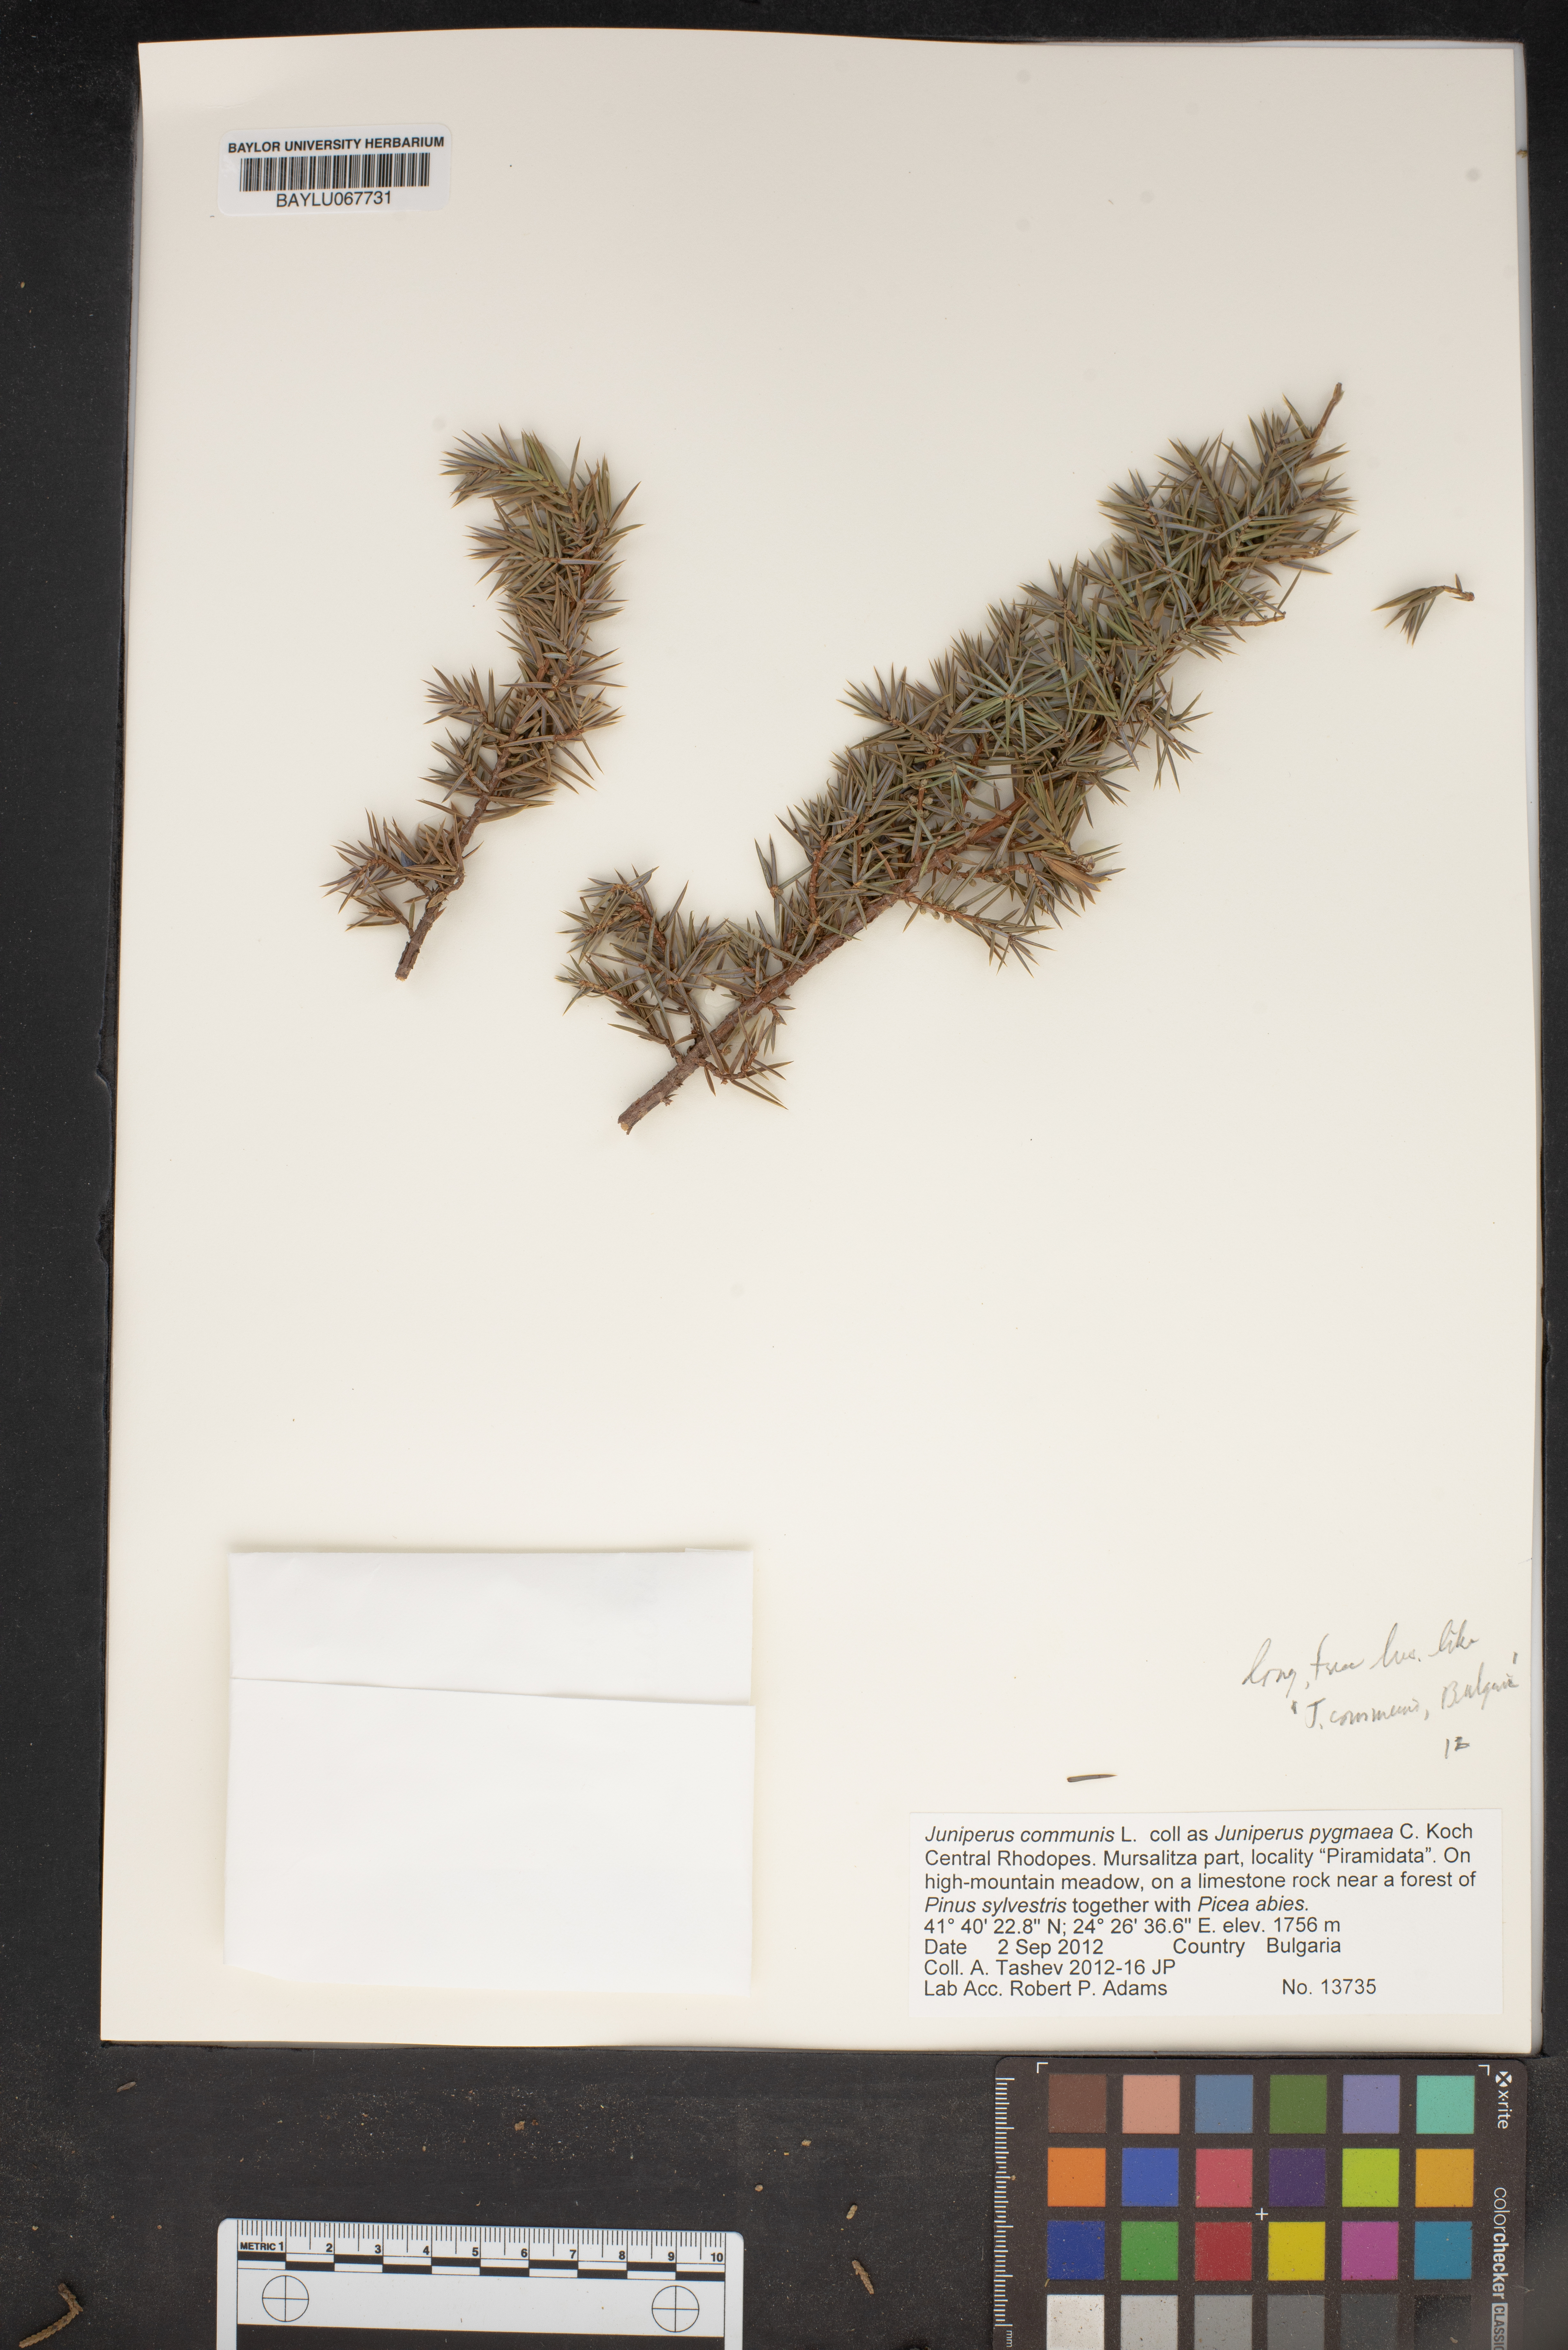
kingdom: Plantae
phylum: Tracheophyta
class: Pinopsida
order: Pinales
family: Cupressaceae
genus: Juniperus
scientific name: Juniperus communis
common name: Common juniper
